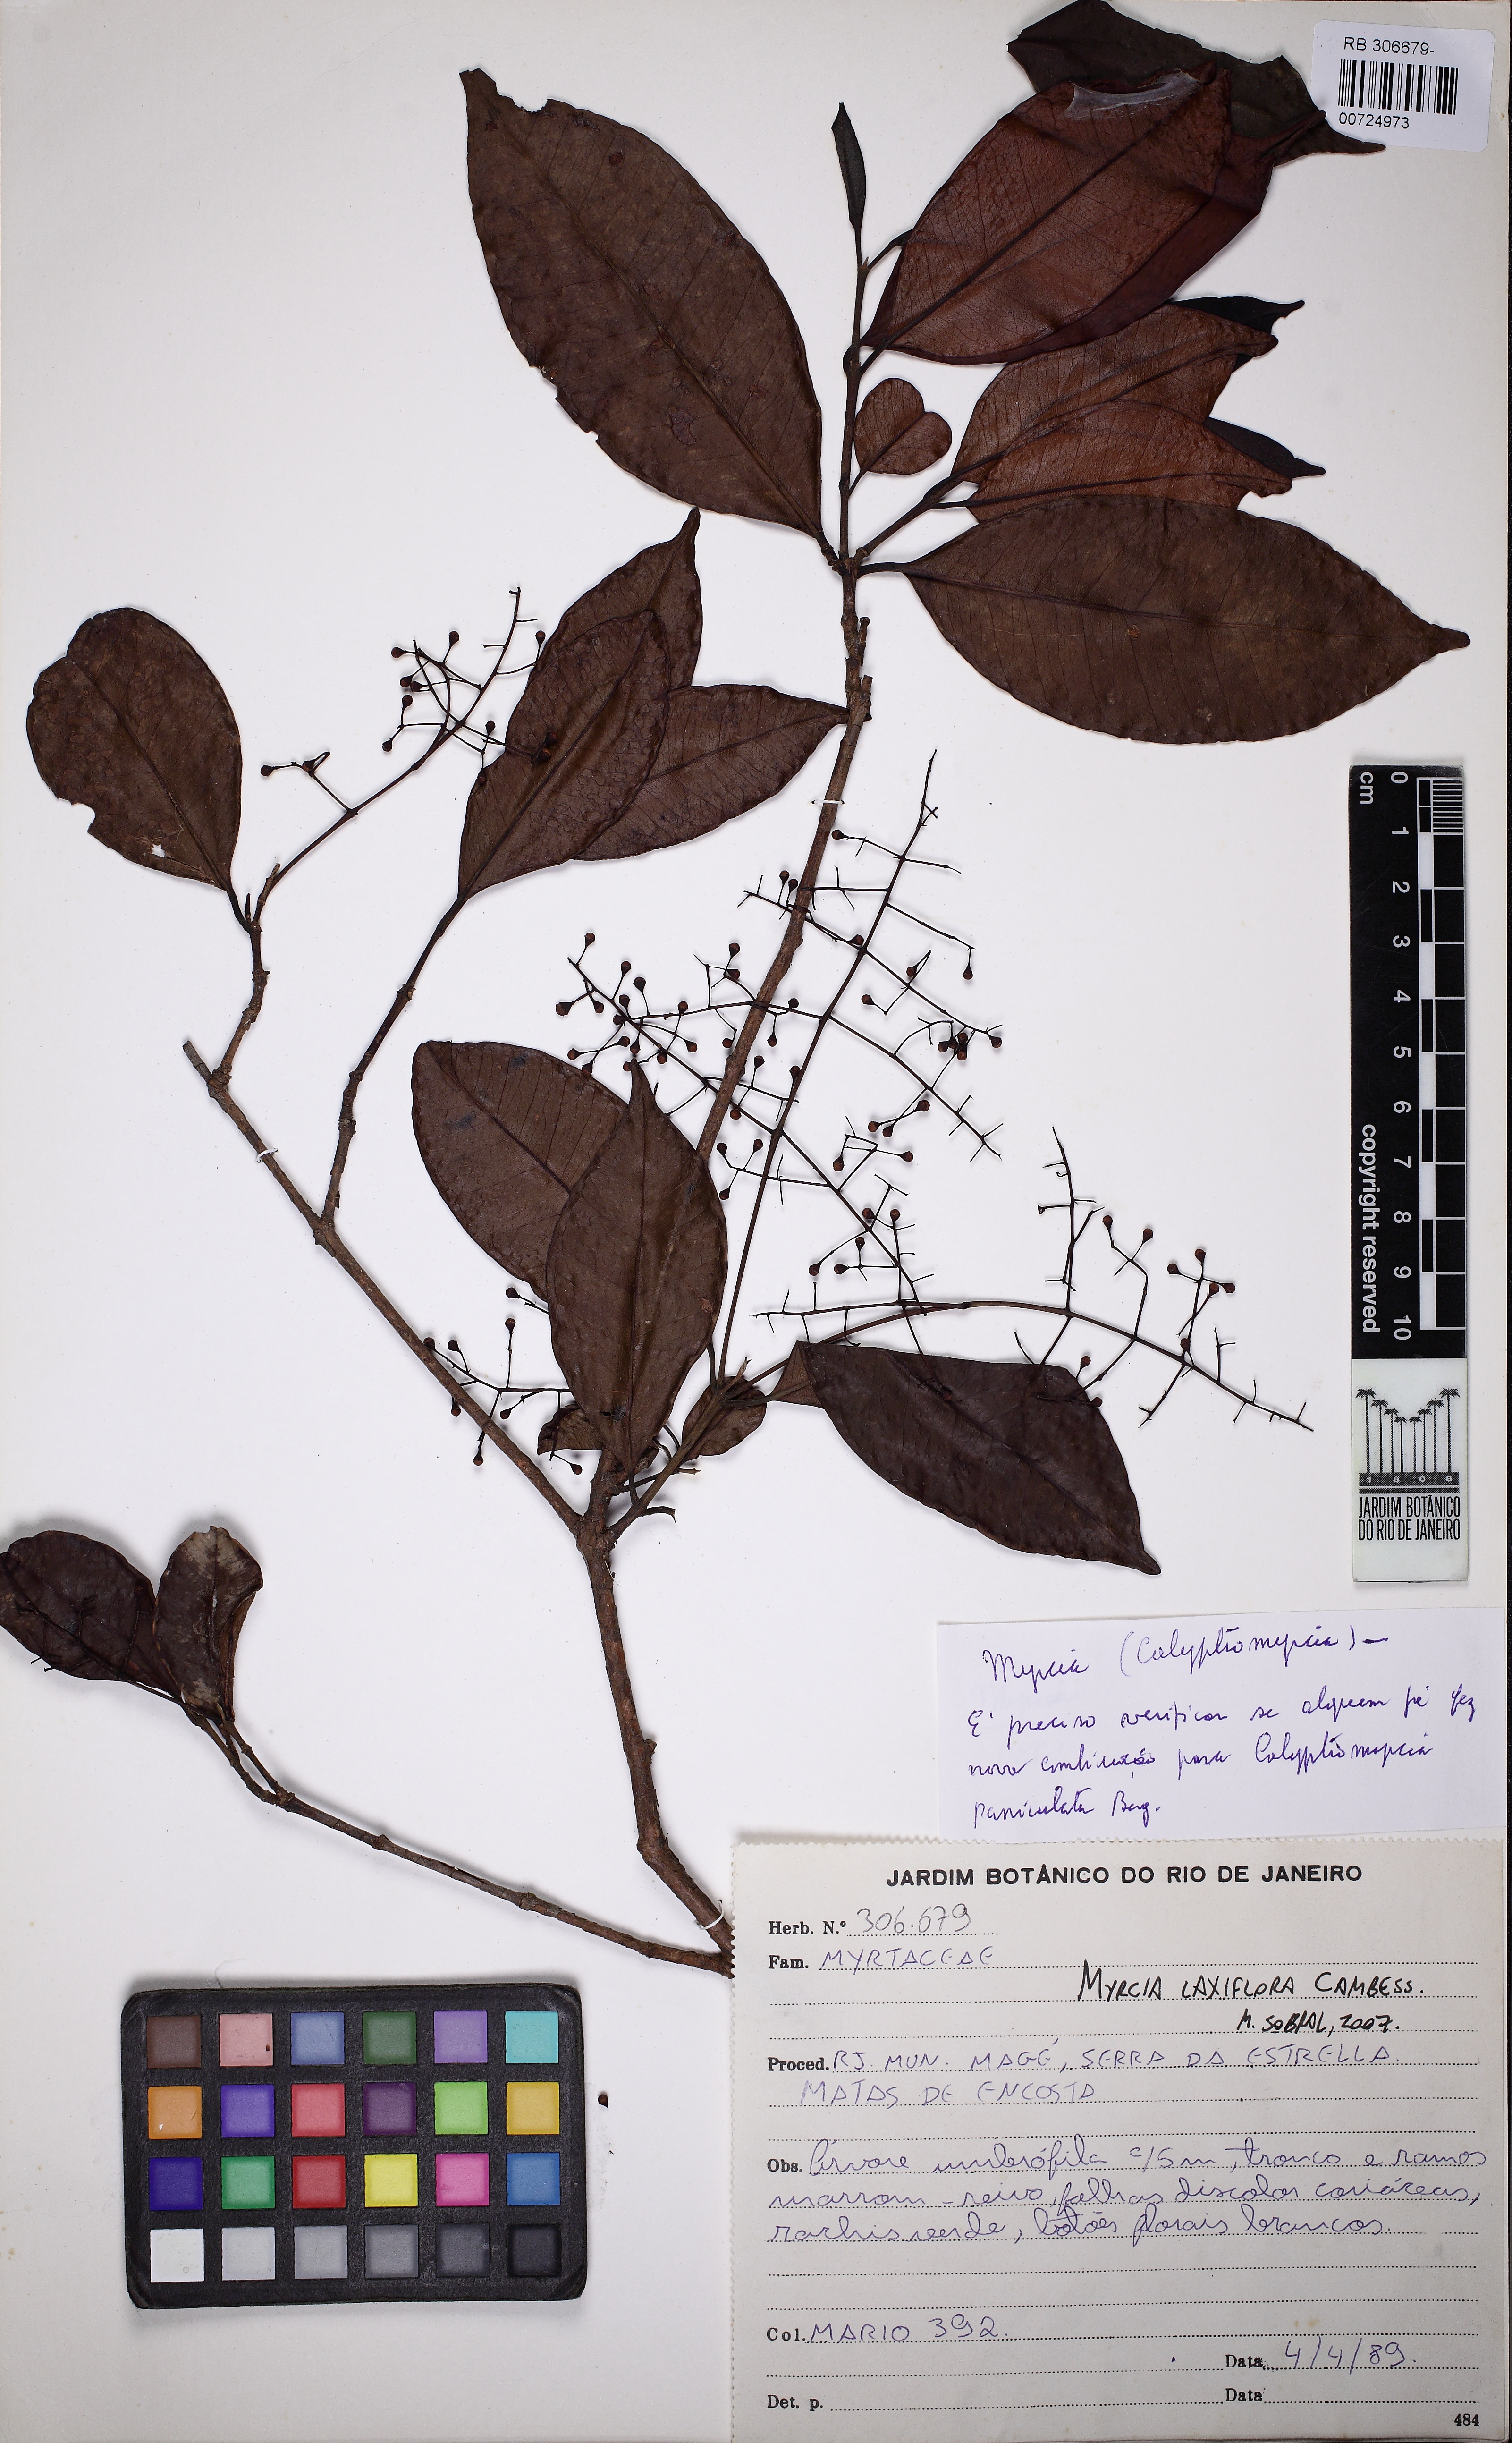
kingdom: Plantae
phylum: Tracheophyta
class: Magnoliopsida
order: Myrtales
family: Myrtaceae
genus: Myrcia
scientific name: Myrcia laxiflora
